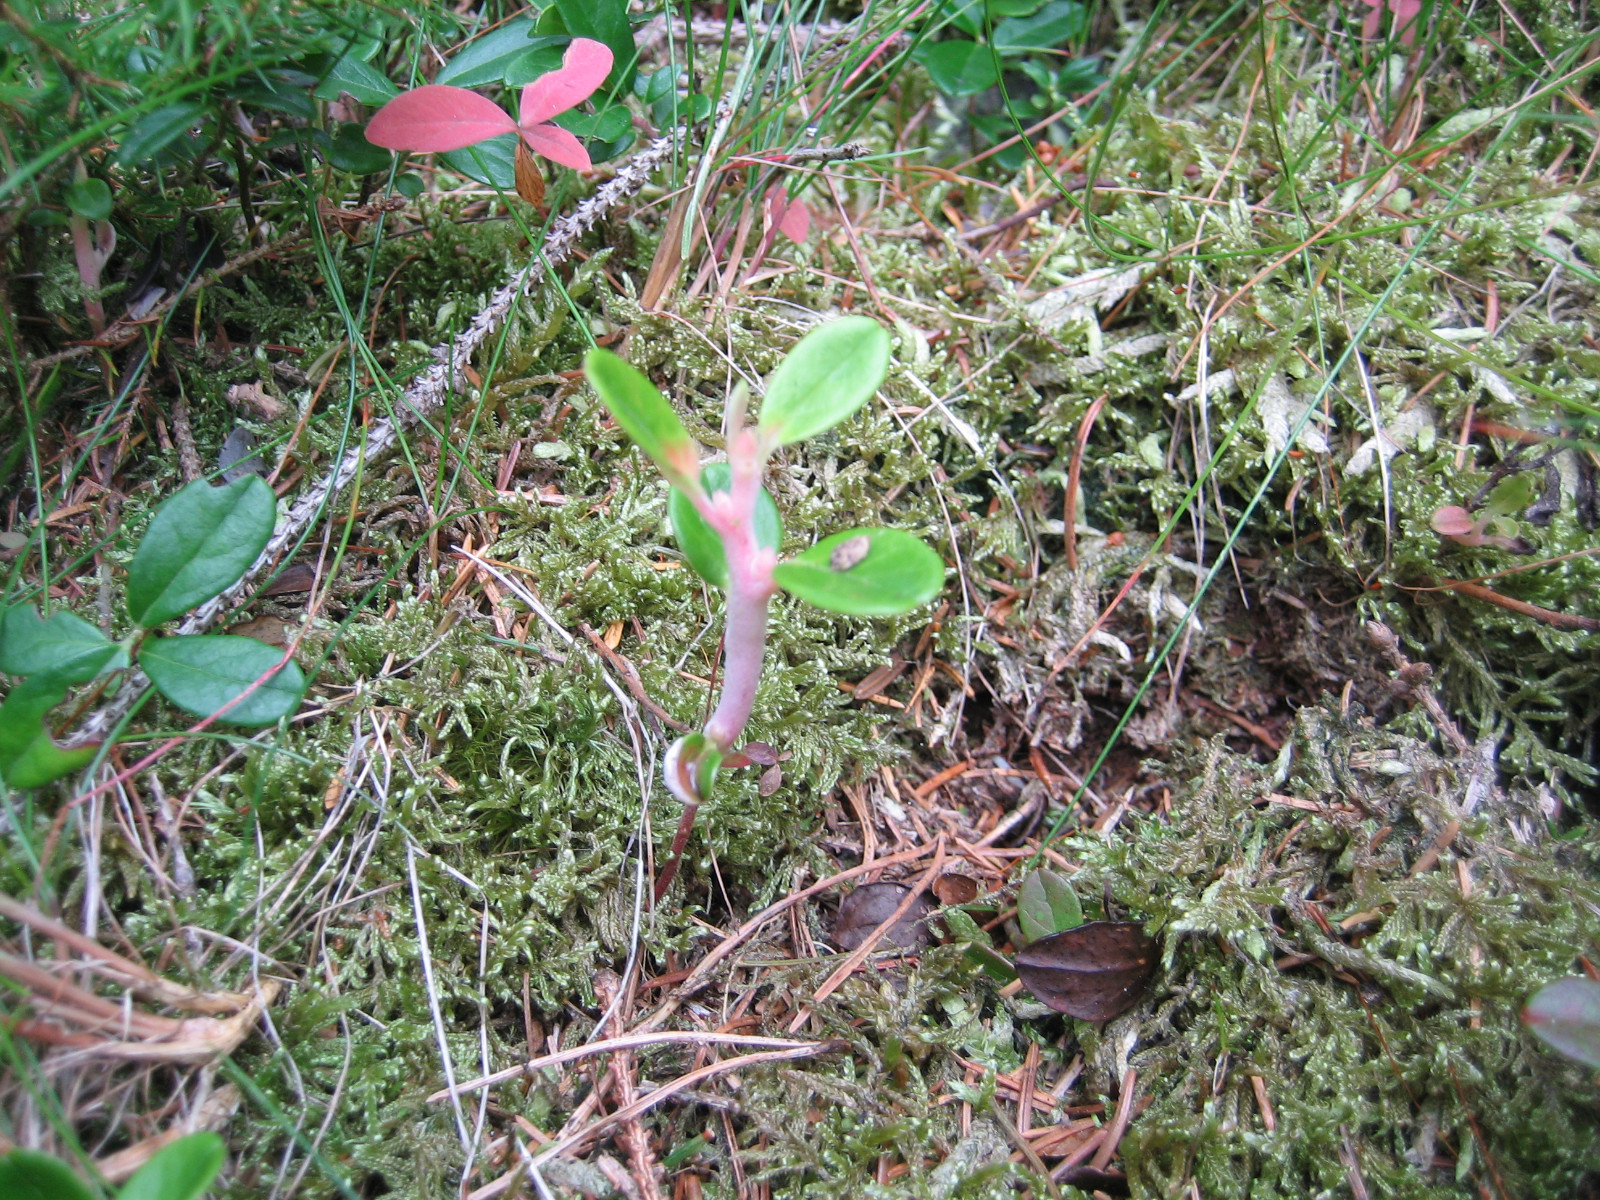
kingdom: Fungi
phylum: Basidiomycota
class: Exobasidiomycetes
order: Exobasidiales
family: Exobasidiaceae
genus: Exobasidium
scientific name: Exobasidium vaccinii
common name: tyttebærblad-bøllesvamp
